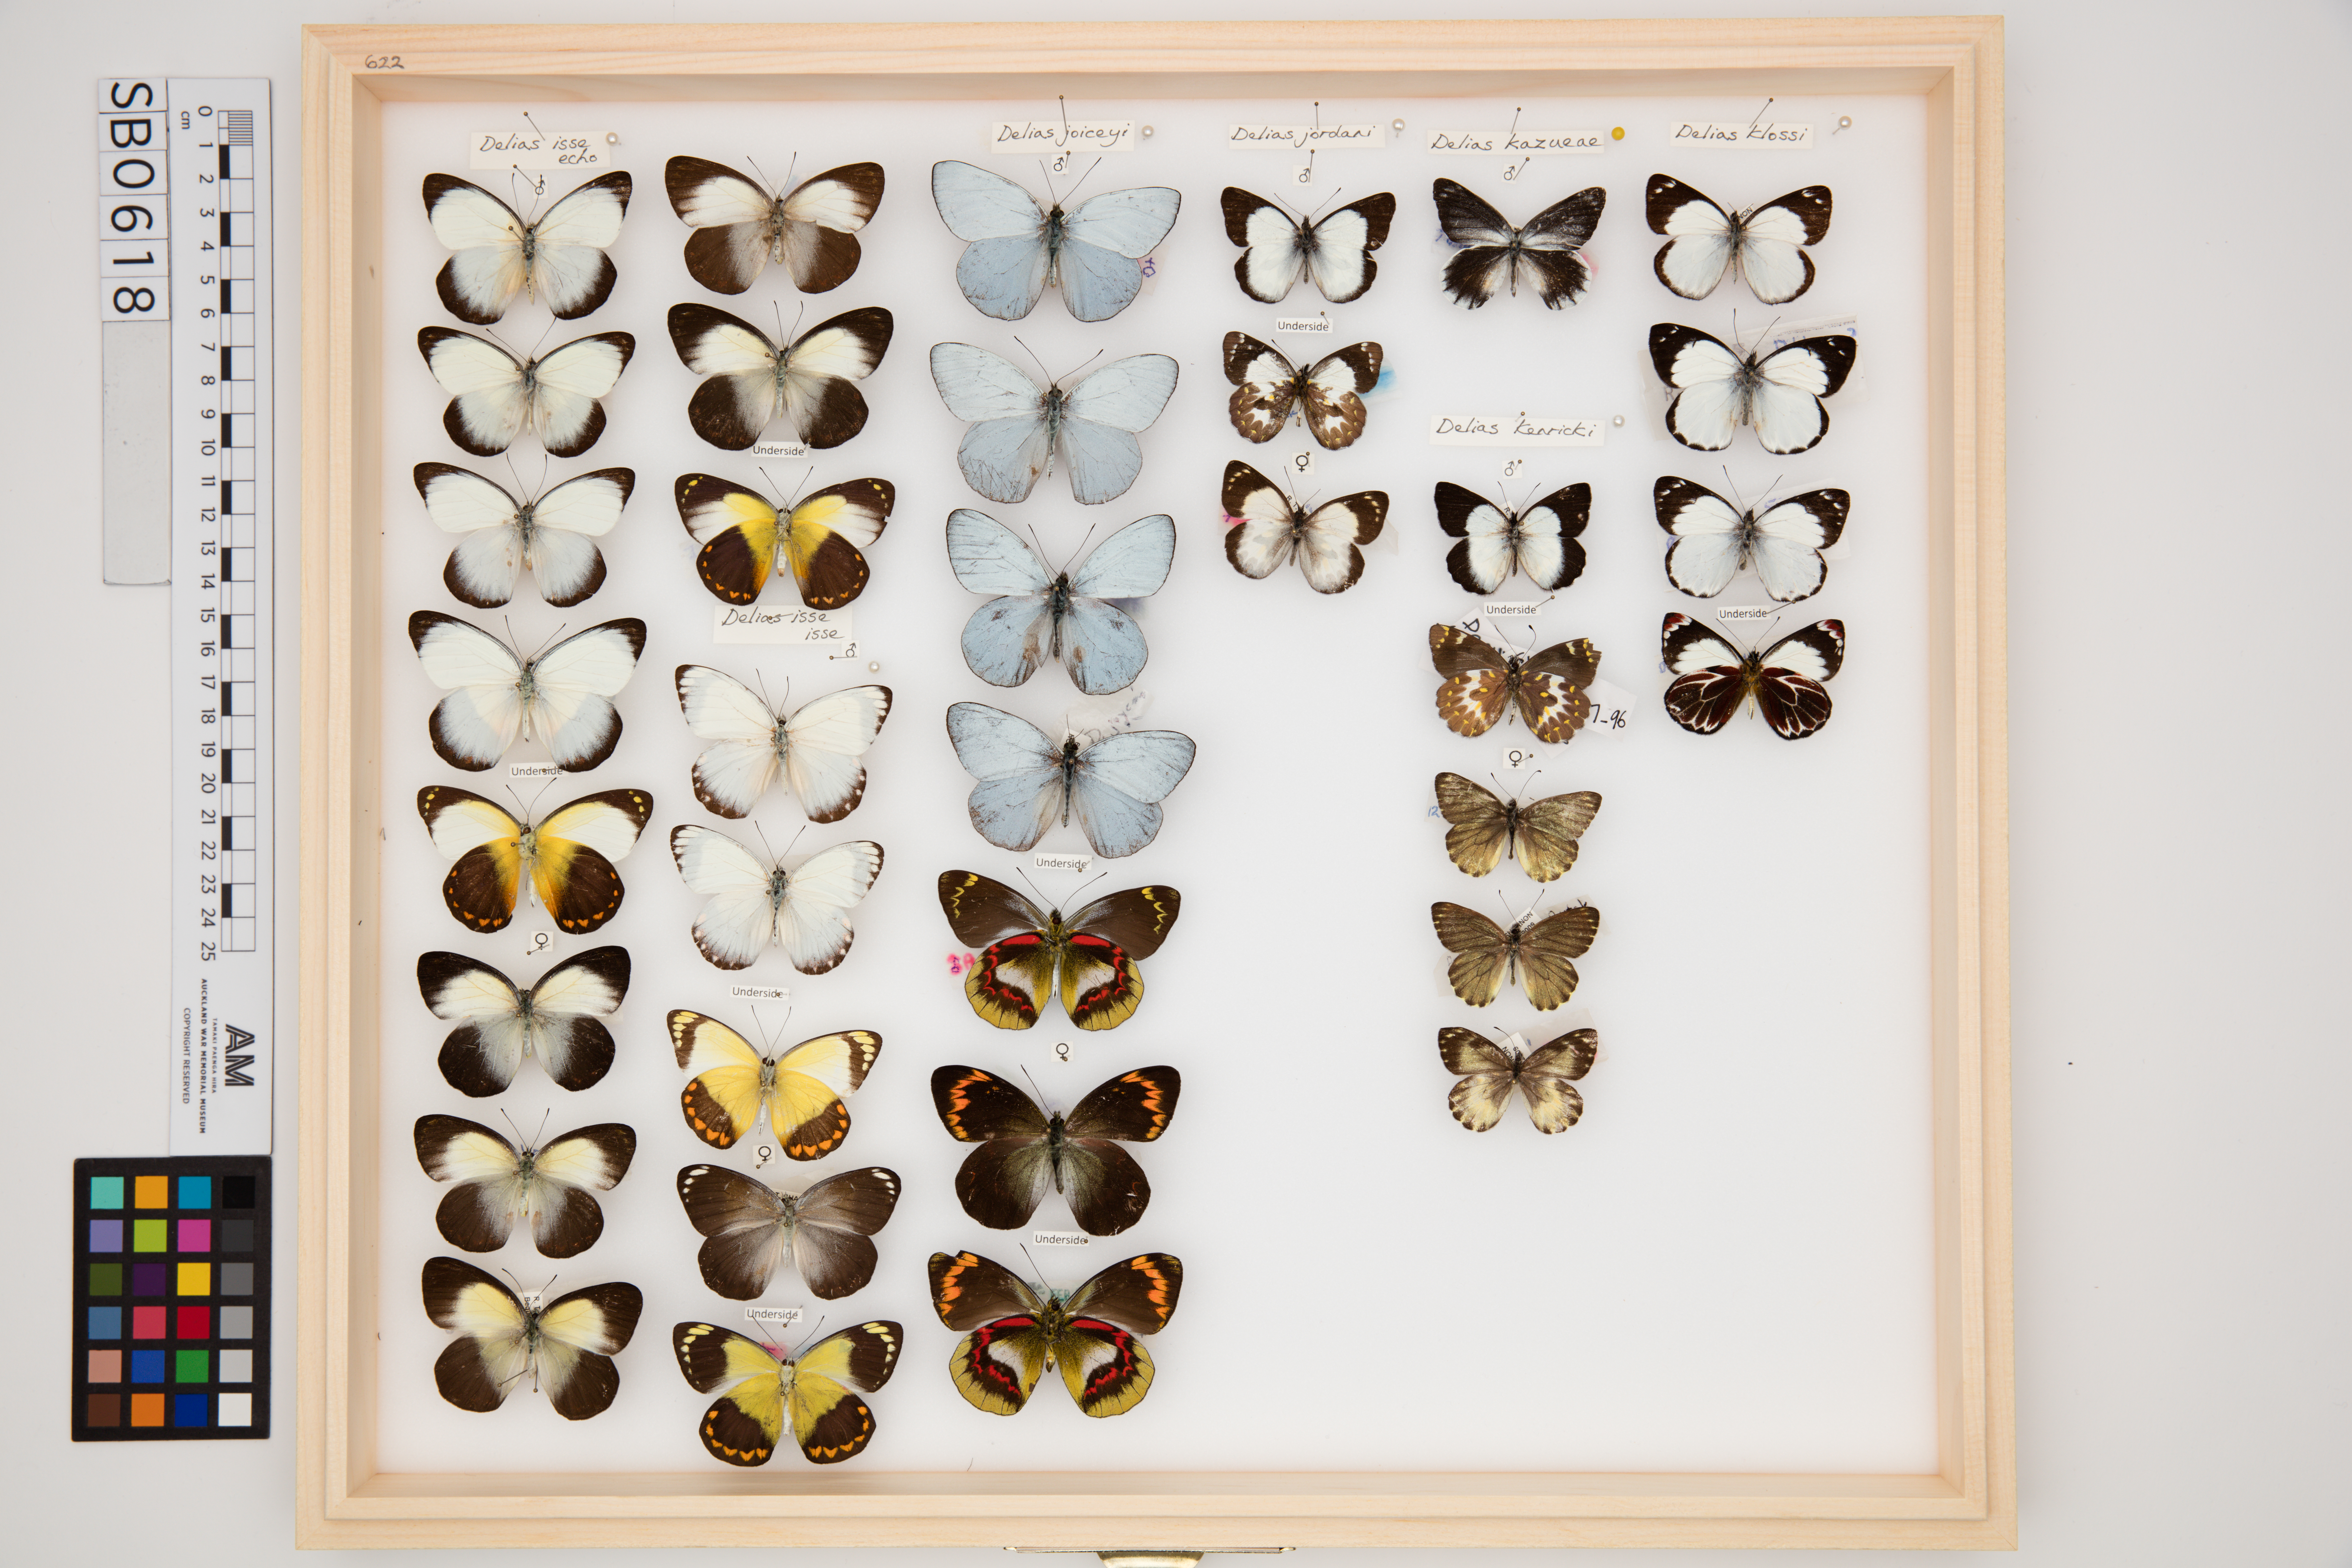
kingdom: Animalia
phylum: Arthropoda
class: Insecta
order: Lepidoptera
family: Pieridae
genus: Delias
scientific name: Delias isse
